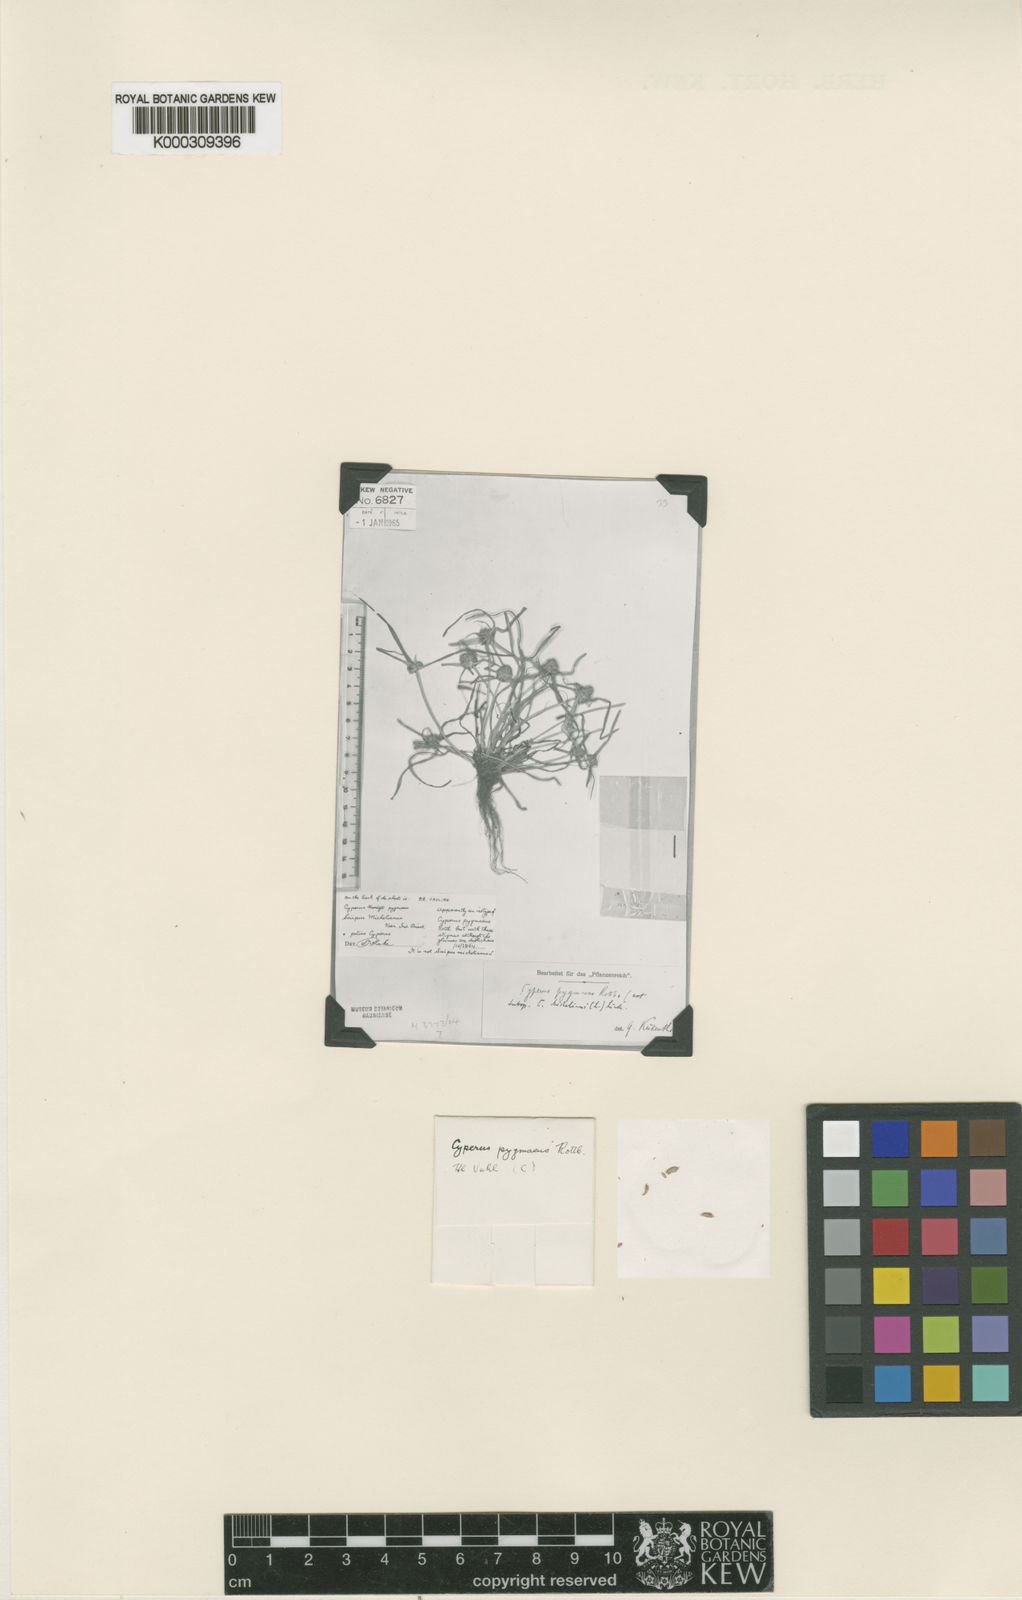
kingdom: Plantae
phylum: Tracheophyta
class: Liliopsida
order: Poales
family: Cyperaceae
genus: Cyperus
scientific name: Cyperus michelianus
